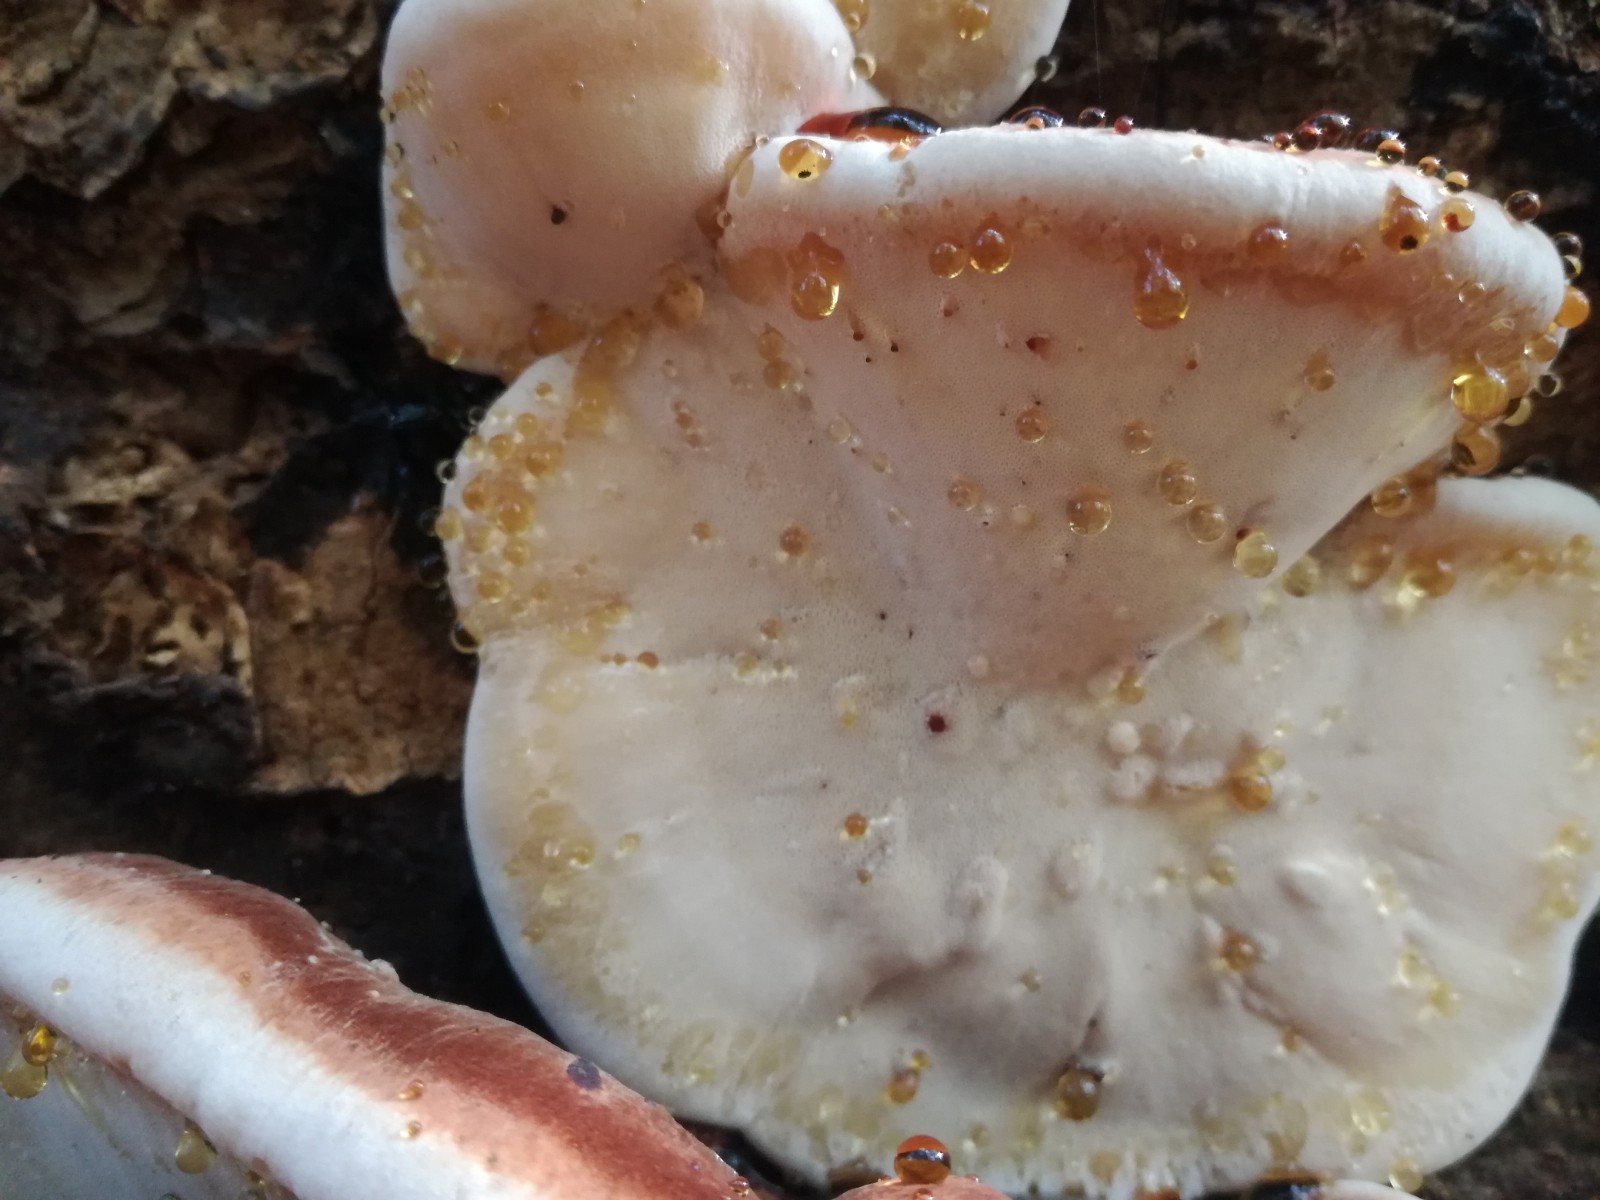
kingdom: Fungi
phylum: Basidiomycota
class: Agaricomycetes
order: Polyporales
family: Ischnodermataceae
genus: Ischnoderma
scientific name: Ischnoderma resinosum
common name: løv-tjæreporesvamp
